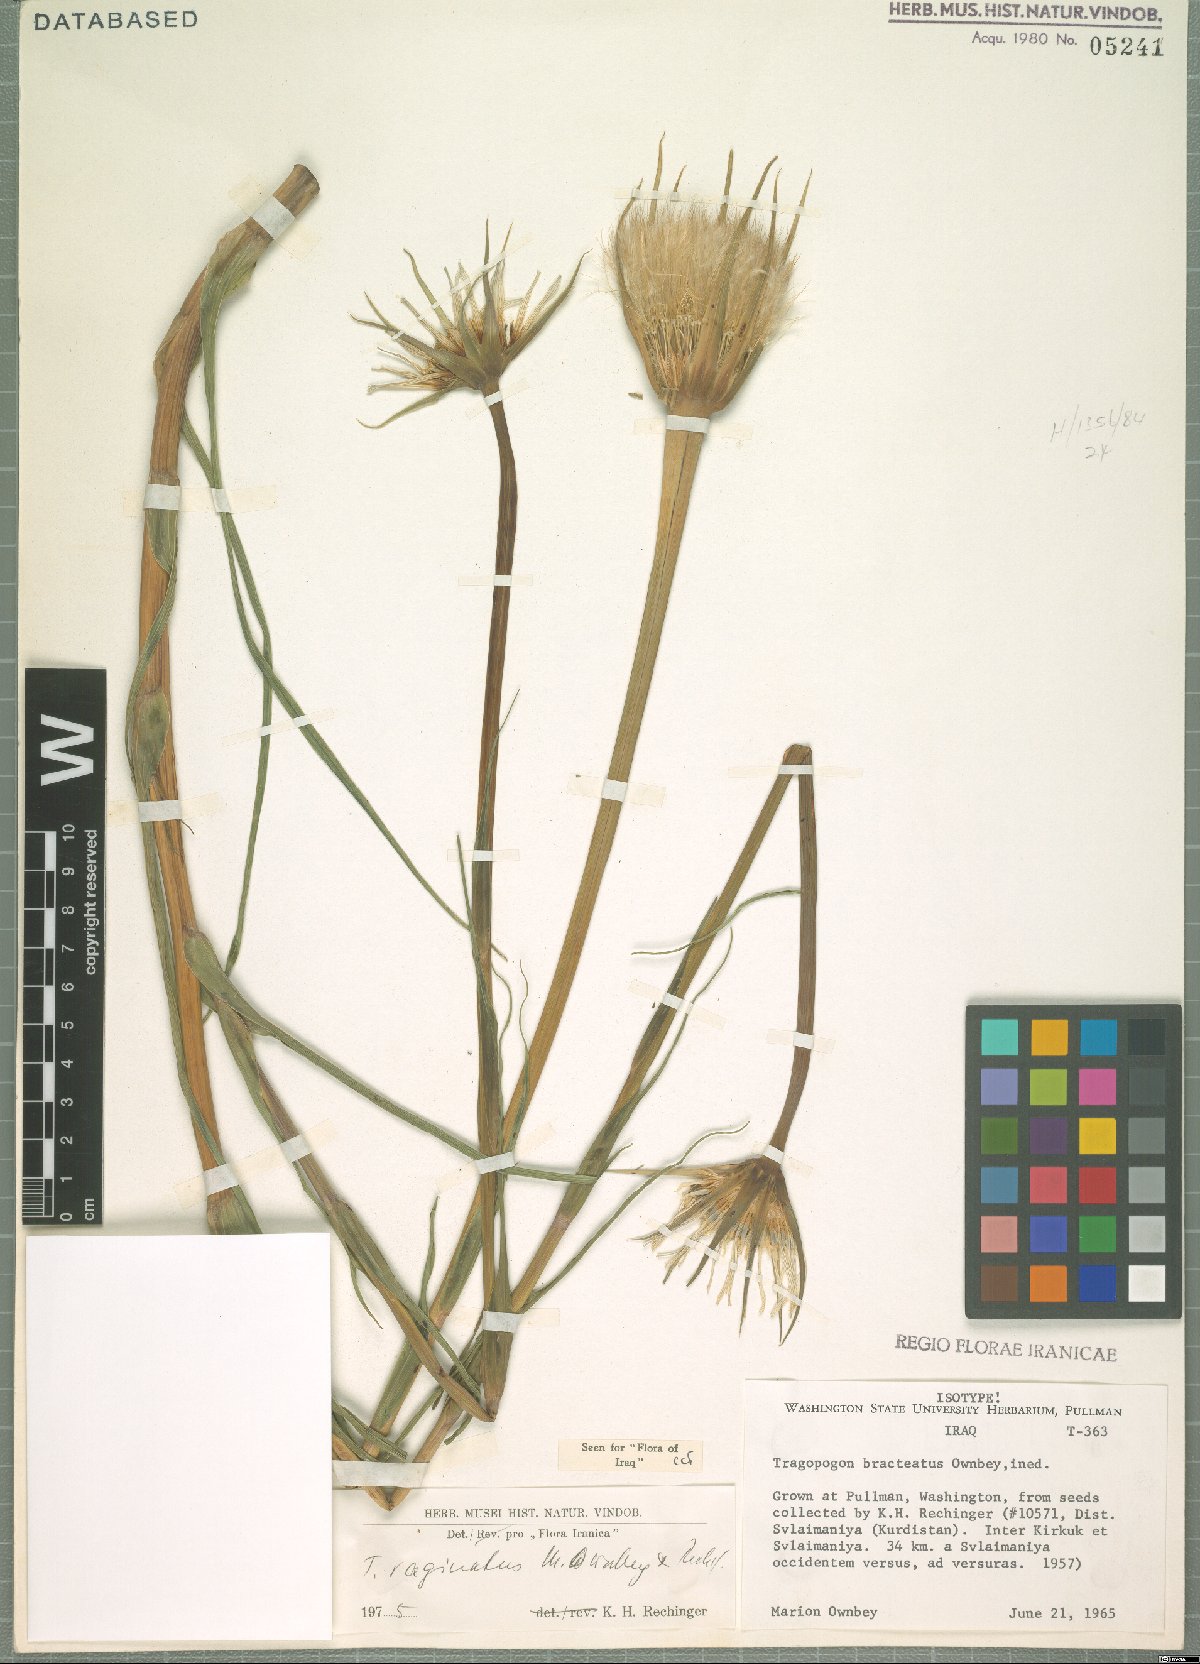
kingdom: Plantae
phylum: Tracheophyta
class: Magnoliopsida
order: Asterales
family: Asteraceae
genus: Tragopogon
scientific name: Tragopogon vaginatus
